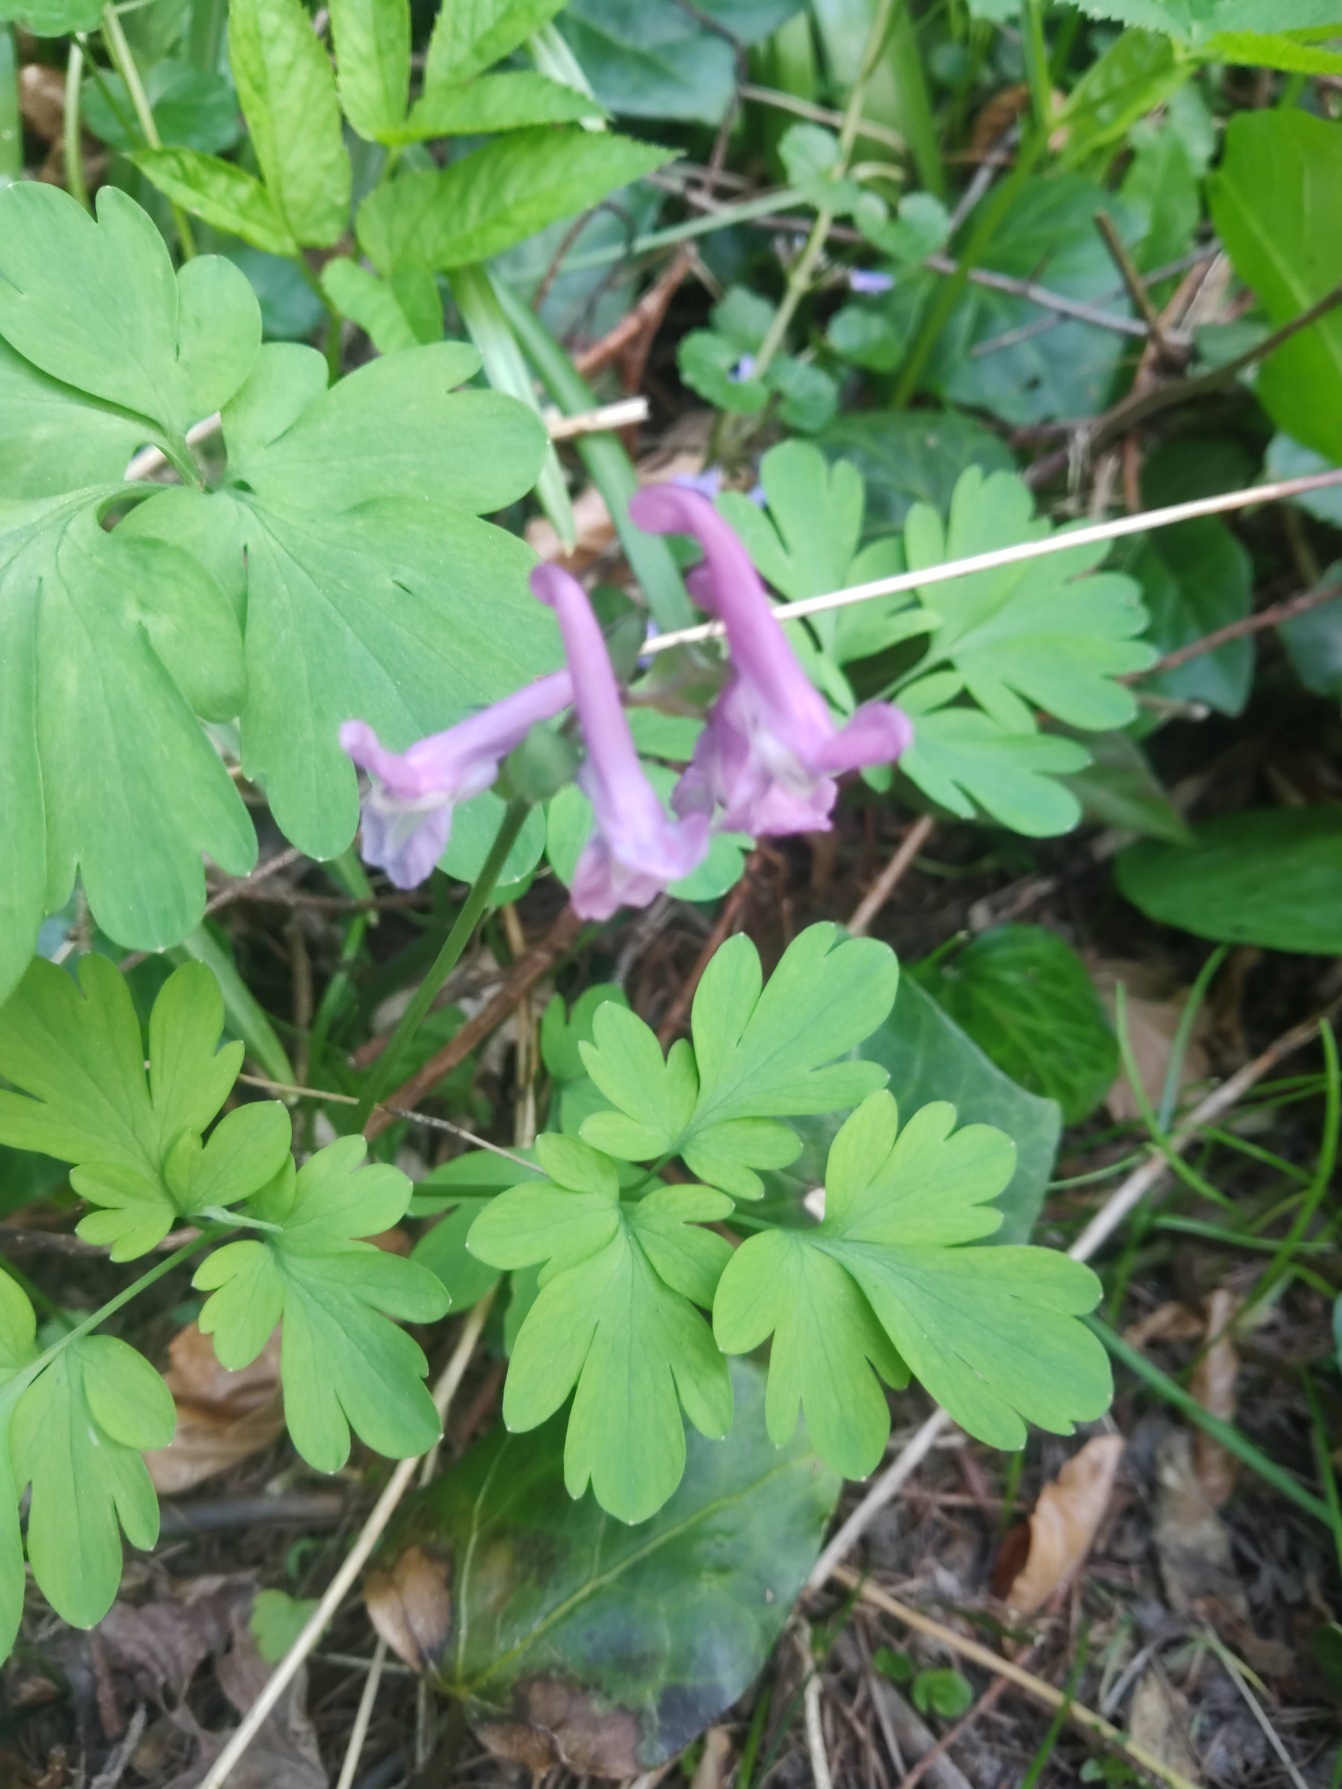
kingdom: Plantae
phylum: Tracheophyta
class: Magnoliopsida
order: Ranunculales
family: Papaveraceae
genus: Corydalis
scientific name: Corydalis cava
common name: Hulrodet lærkespore
